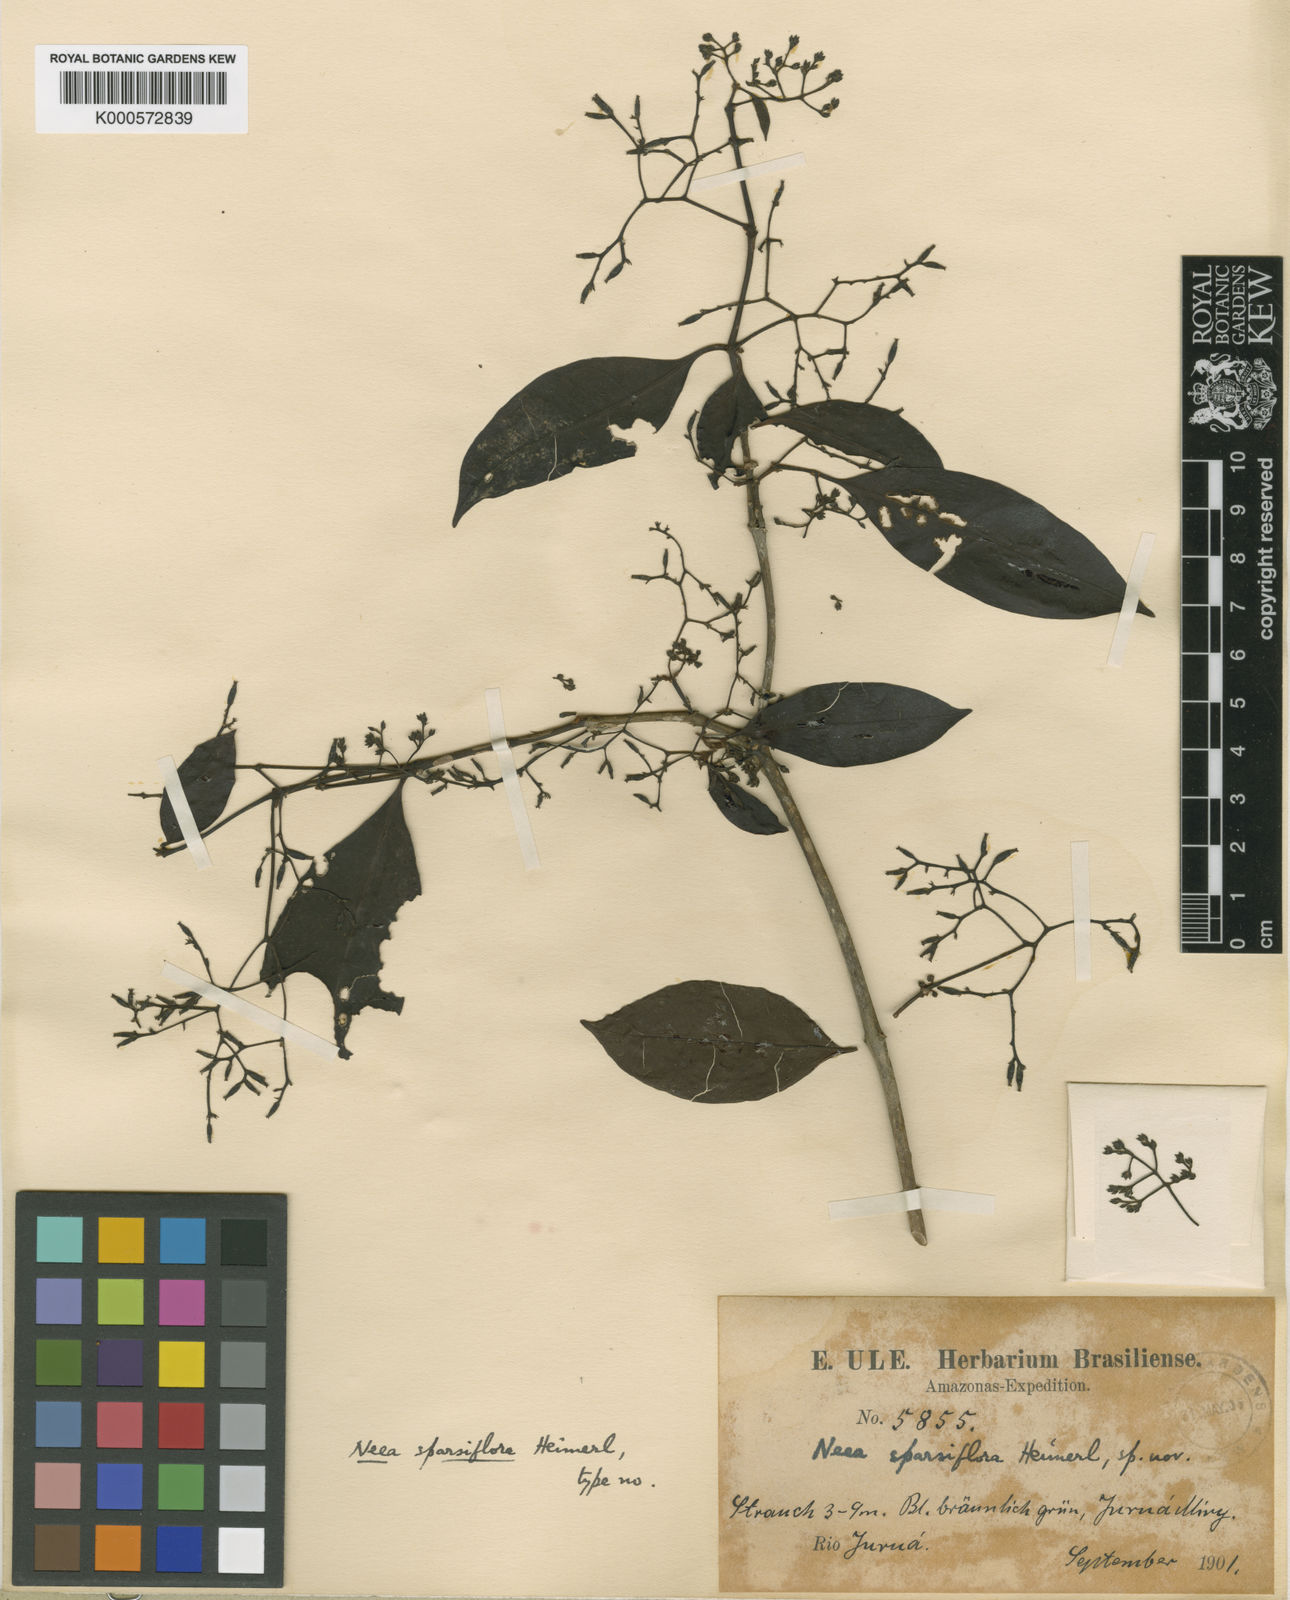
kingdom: Plantae
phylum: Tracheophyta
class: Magnoliopsida
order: Caryophyllales
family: Nyctaginaceae
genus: Neea
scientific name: Neea ovalifolia
